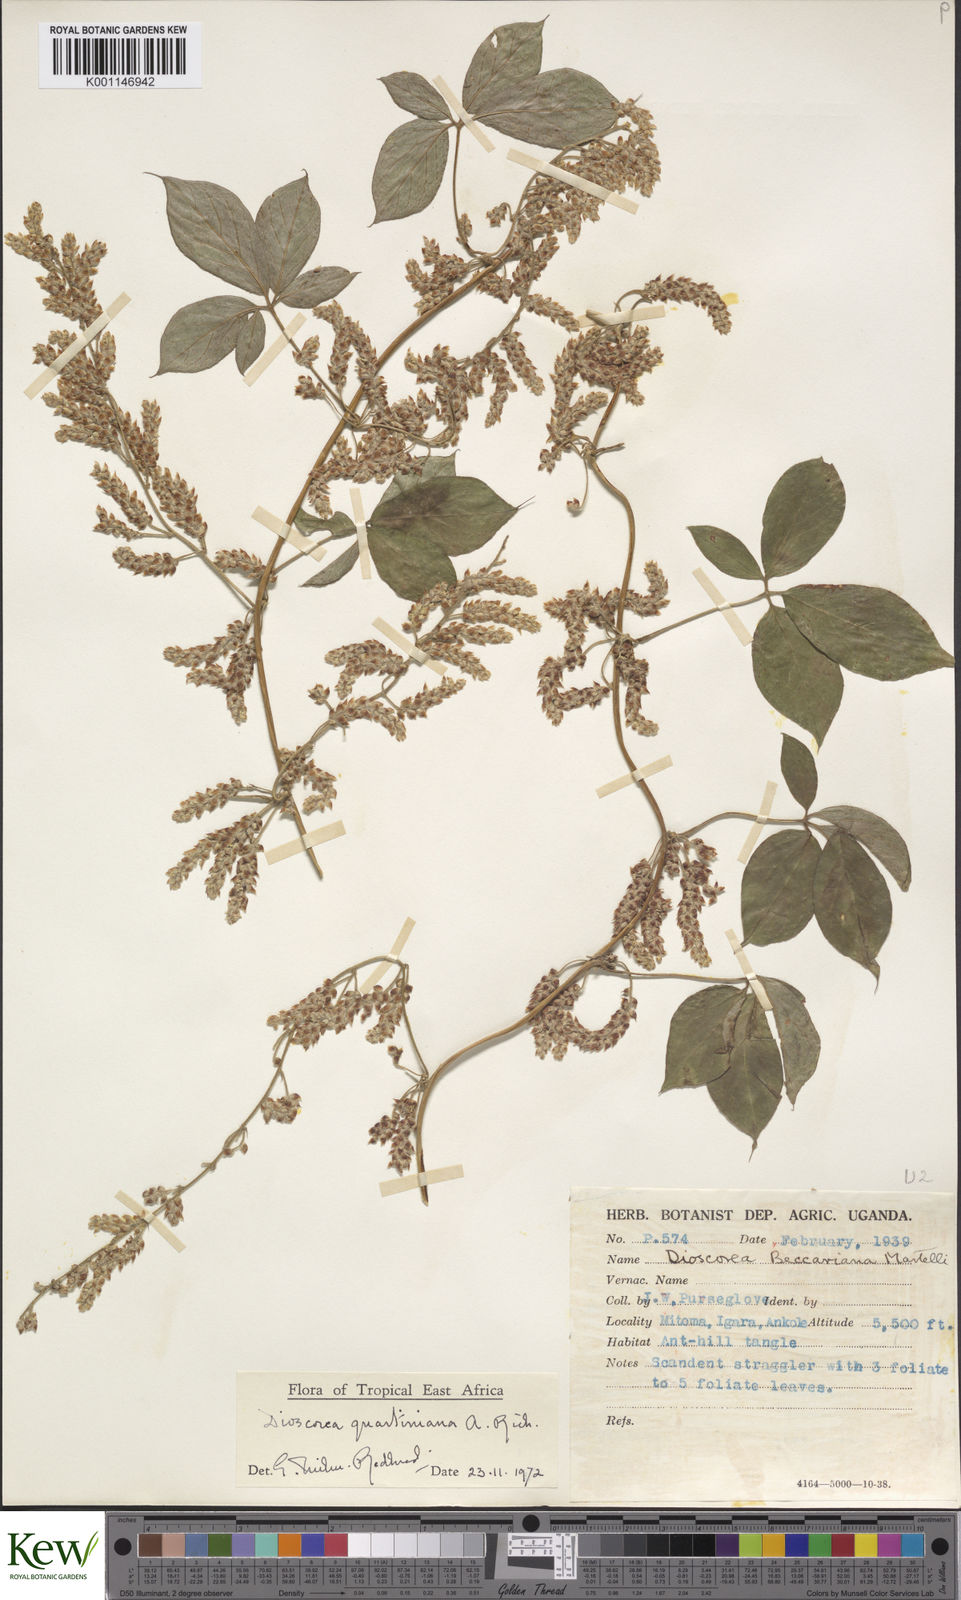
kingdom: Plantae
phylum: Tracheophyta
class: Liliopsida
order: Dioscoreales
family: Dioscoreaceae
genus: Dioscorea
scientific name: Dioscorea quartiniana
